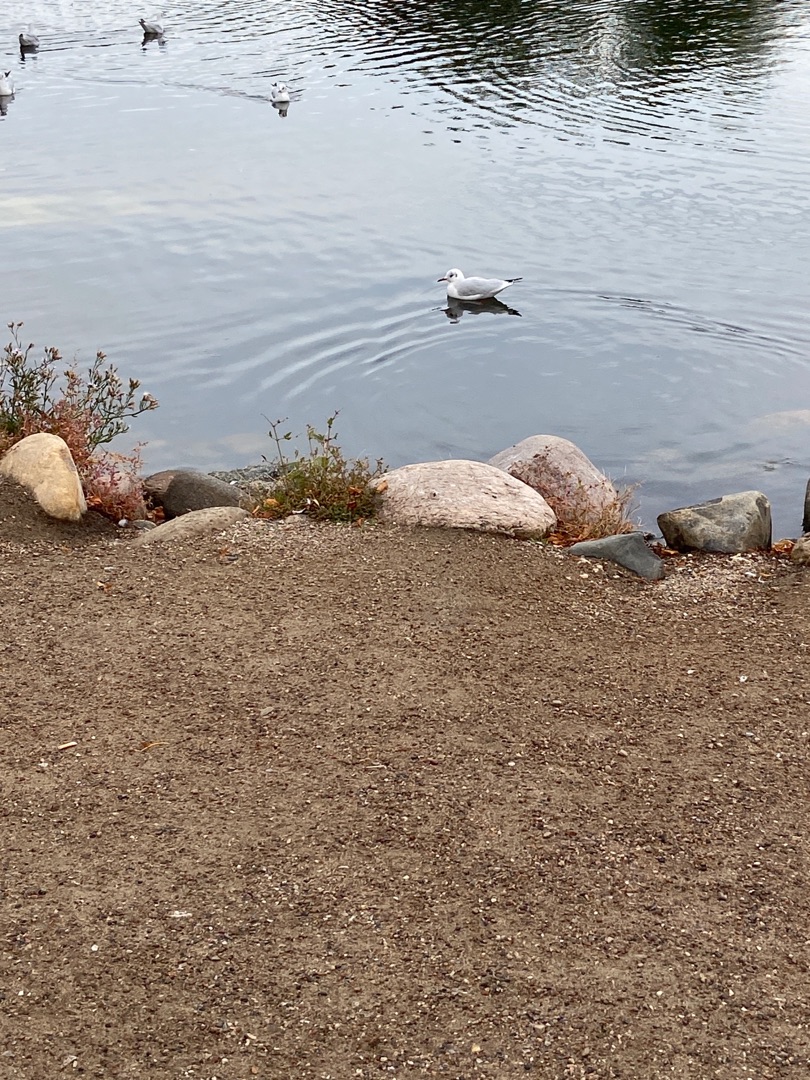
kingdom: Animalia
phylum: Chordata
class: Aves
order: Charadriiformes
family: Laridae
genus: Chroicocephalus
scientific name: Chroicocephalus ridibundus
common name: Hættemåge
